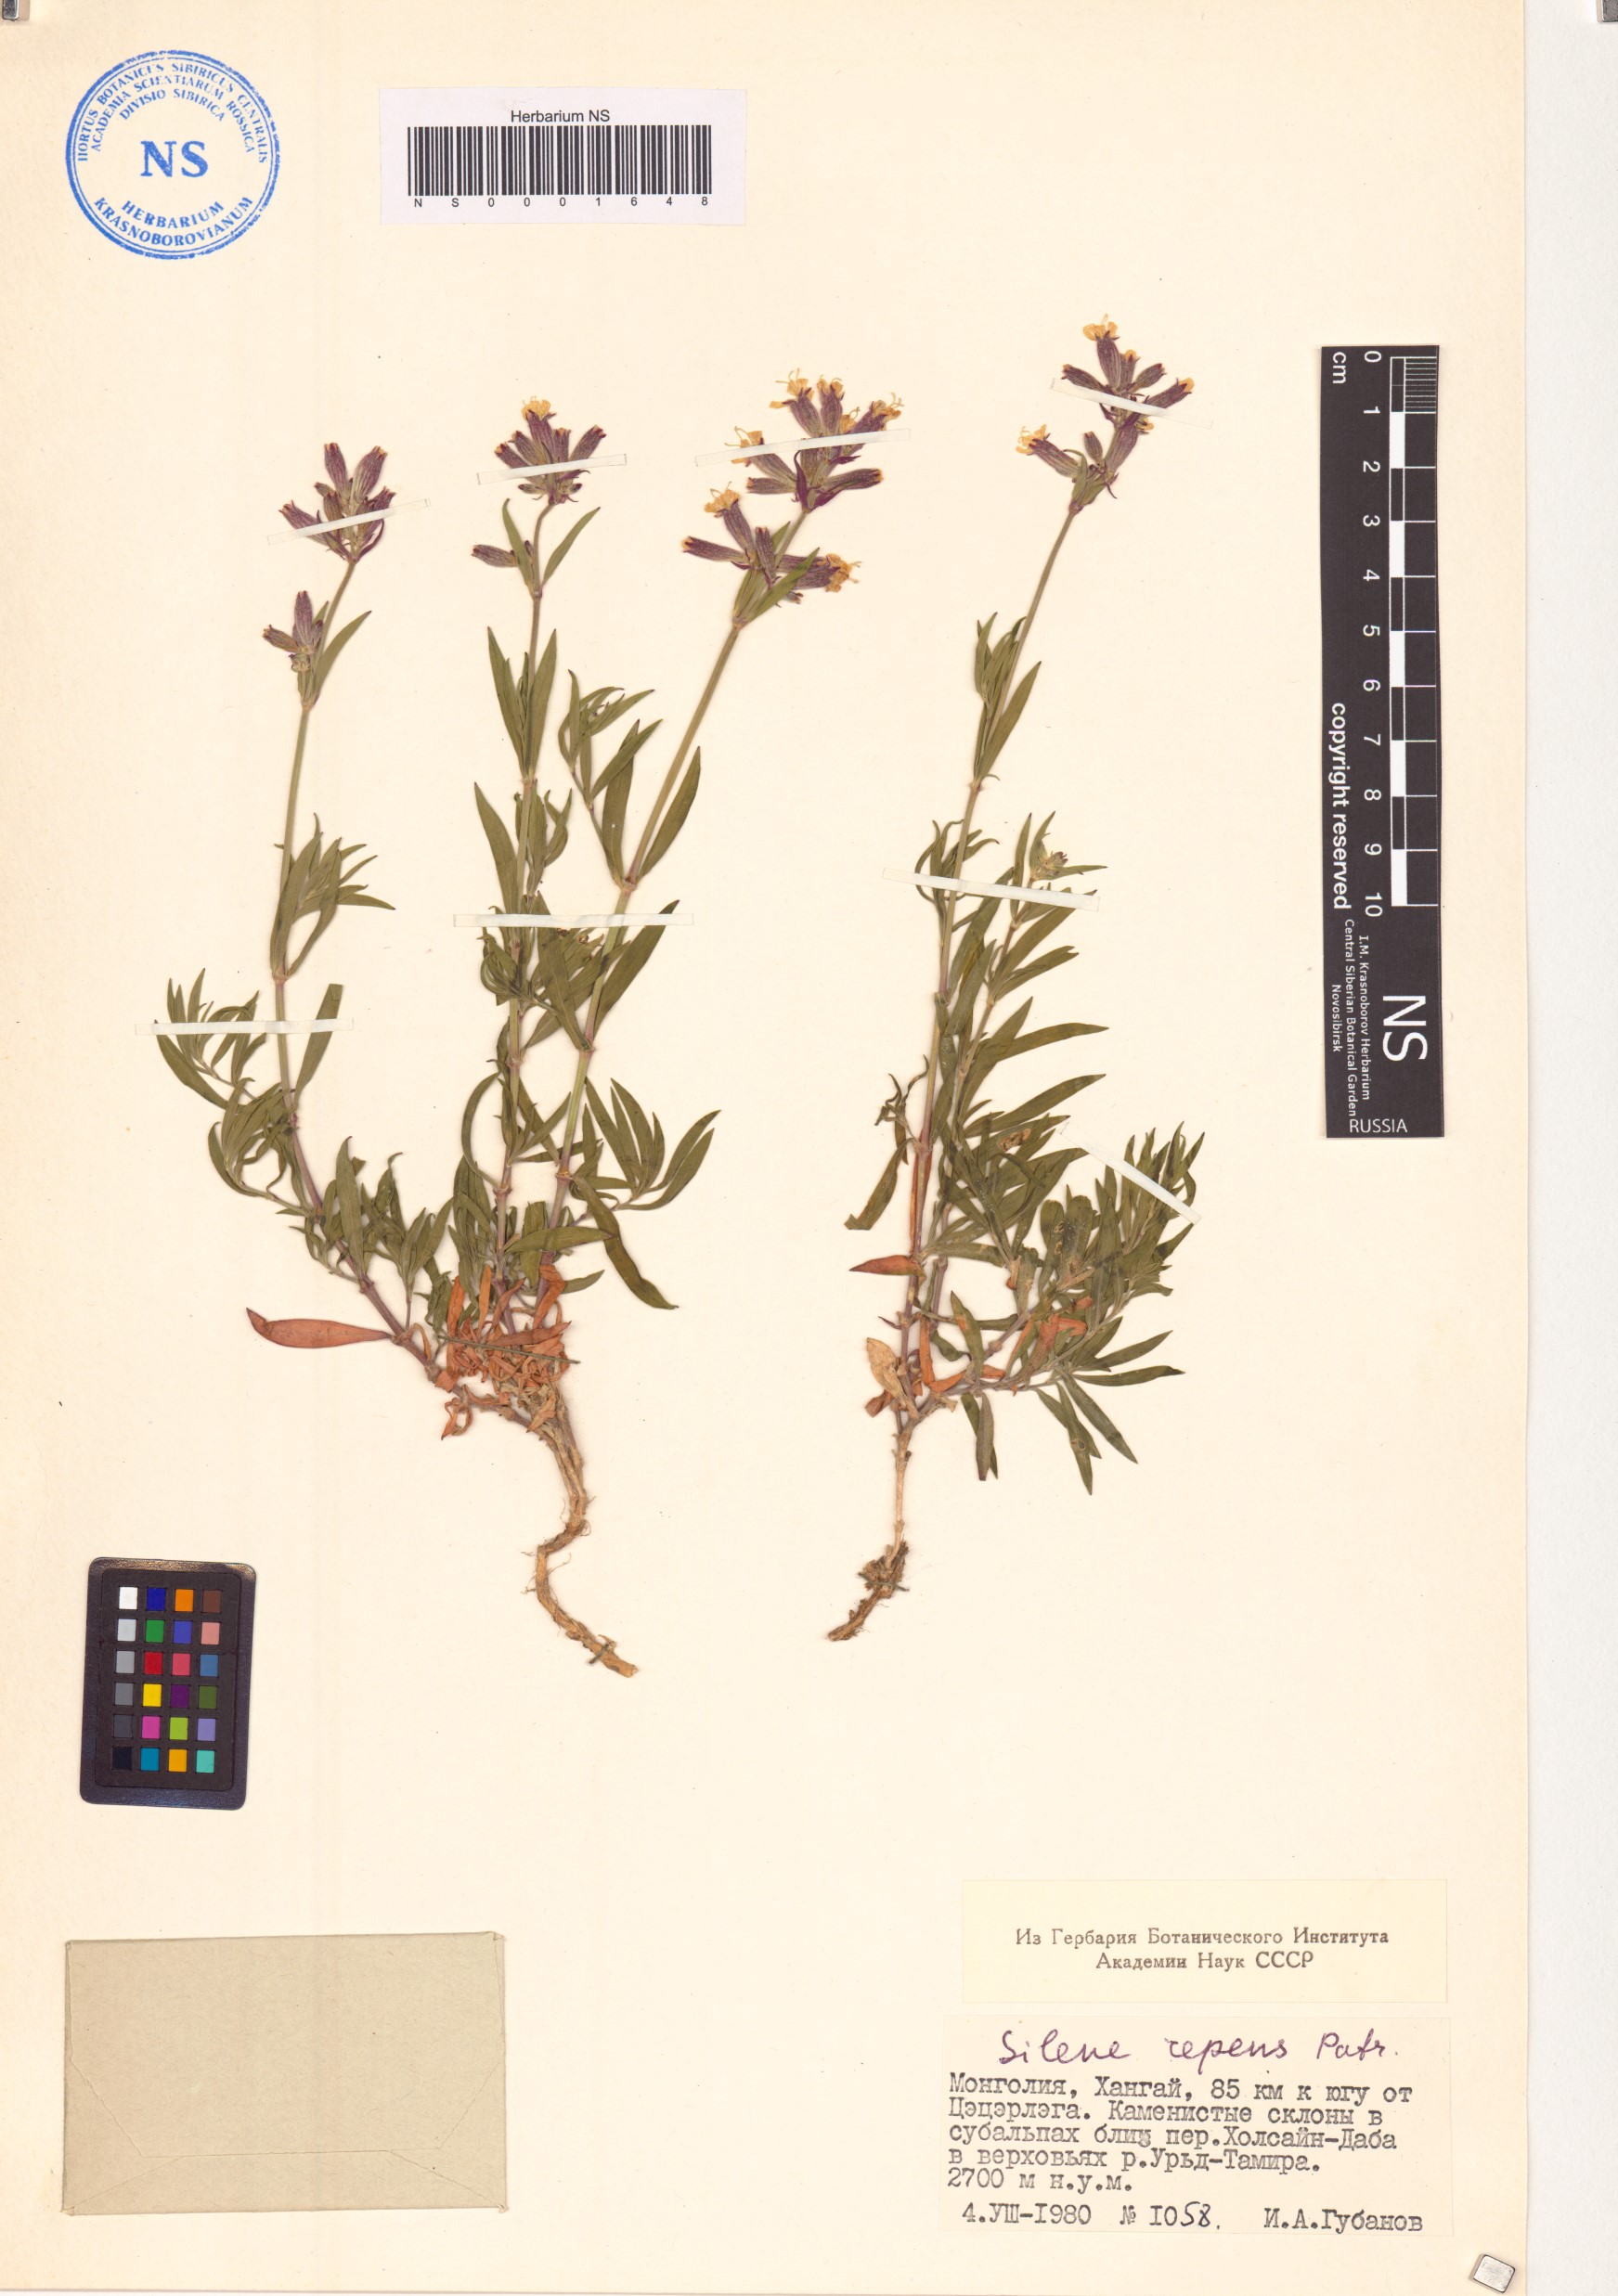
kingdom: Plantae
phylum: Tracheophyta
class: Magnoliopsida
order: Caryophyllales
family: Caryophyllaceae
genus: Silene
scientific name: Silene repens
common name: Pink campion
